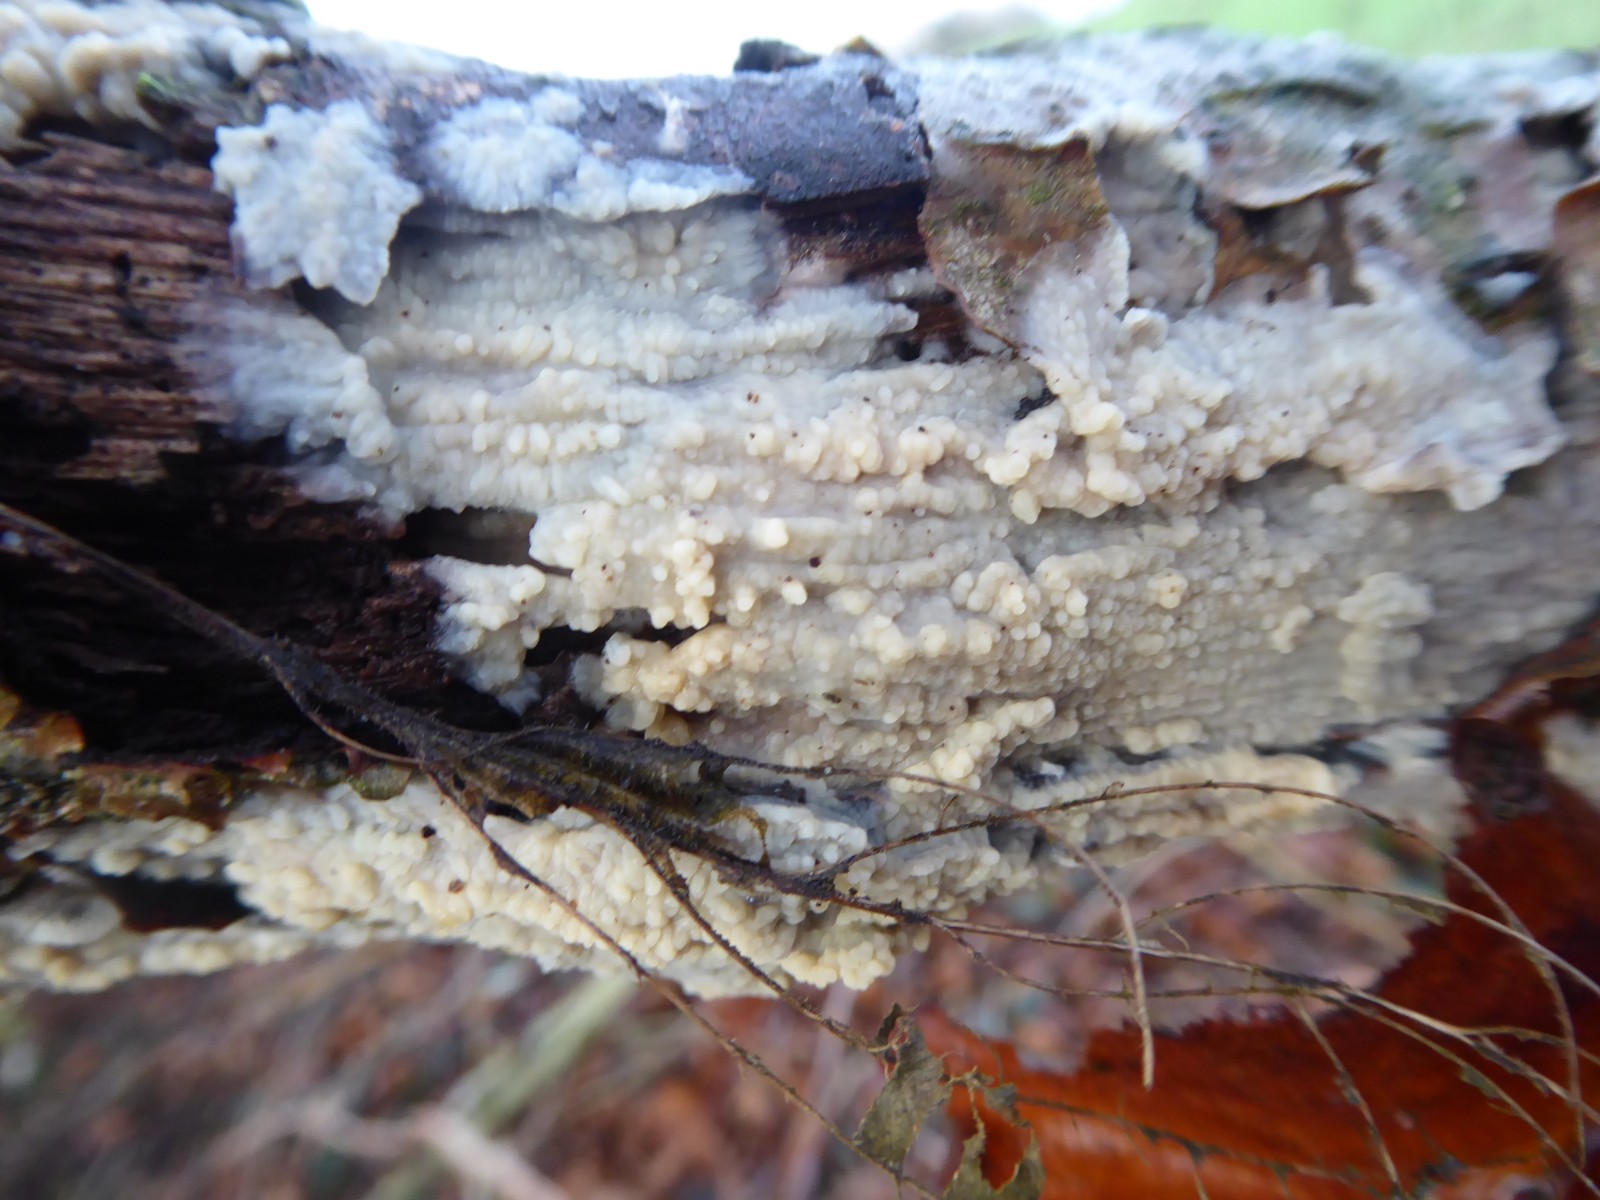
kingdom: Fungi
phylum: Basidiomycota
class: Agaricomycetes
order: Agaricales
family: Radulomycetaceae
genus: Radulomyces
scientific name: Radulomyces confluens
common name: glat naftalinskind
